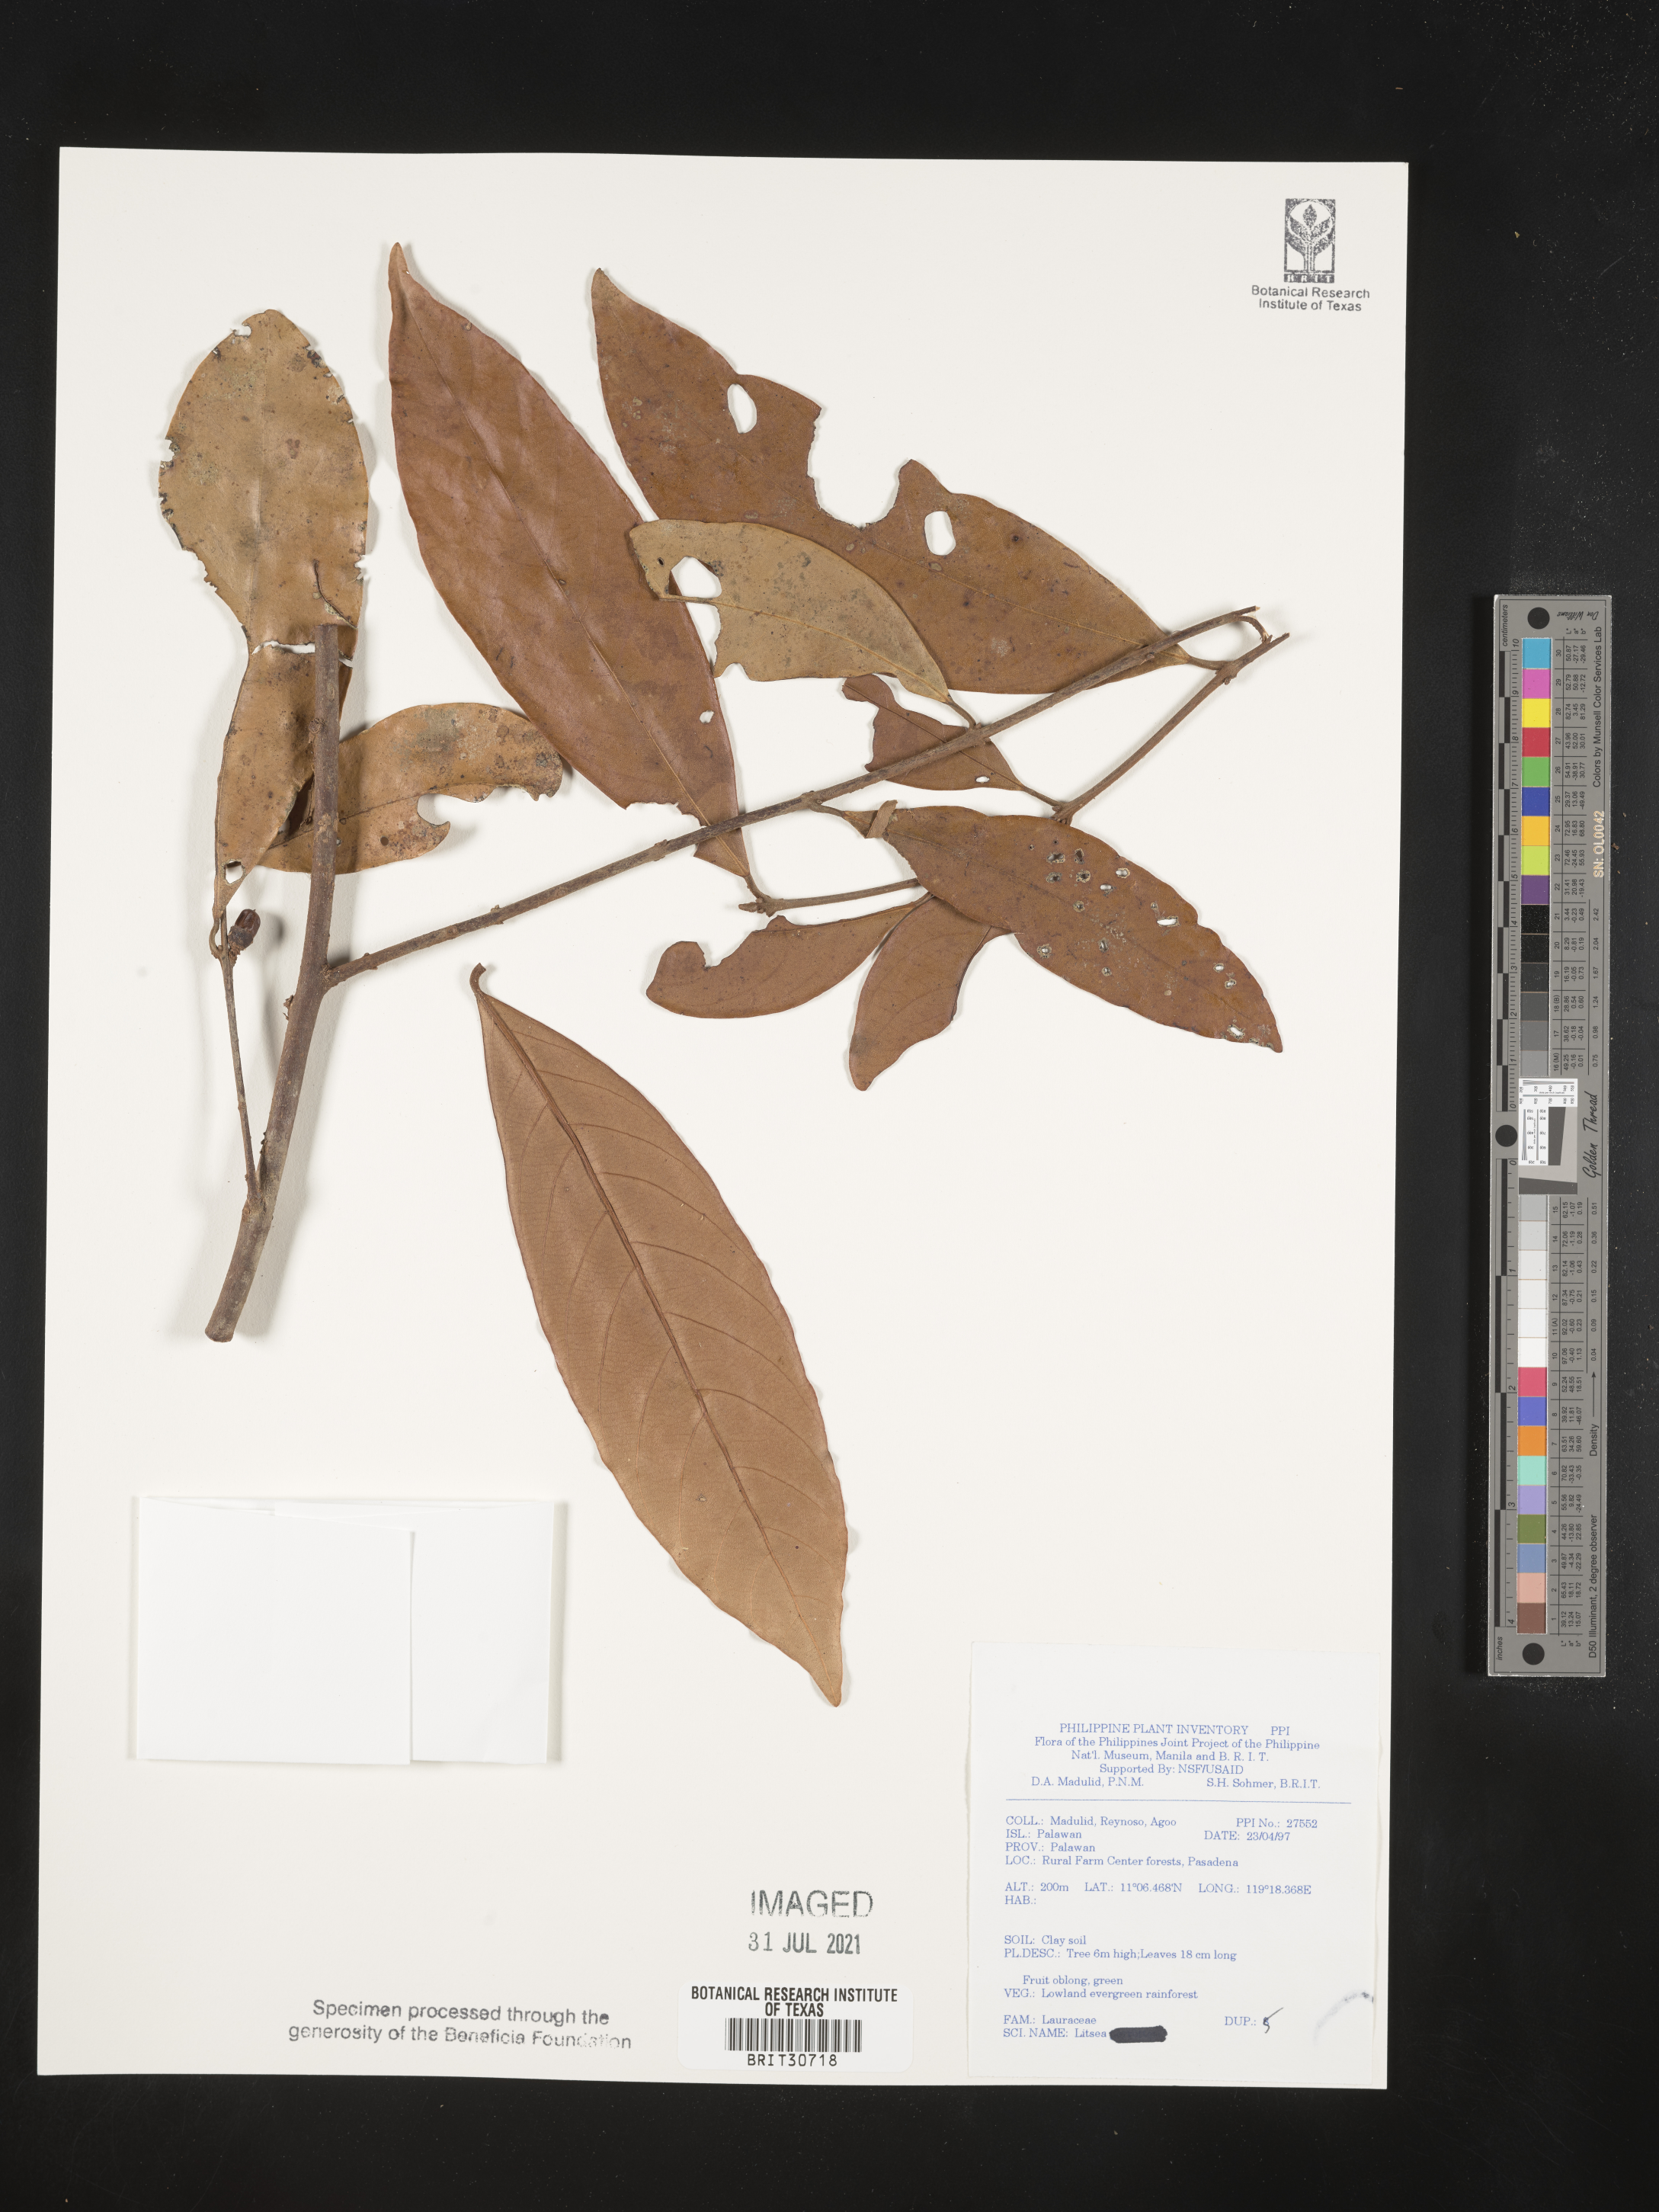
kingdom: Plantae
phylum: Tracheophyta
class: Magnoliopsida
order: Laurales
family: Lauraceae
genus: Litsea
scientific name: Litsea
